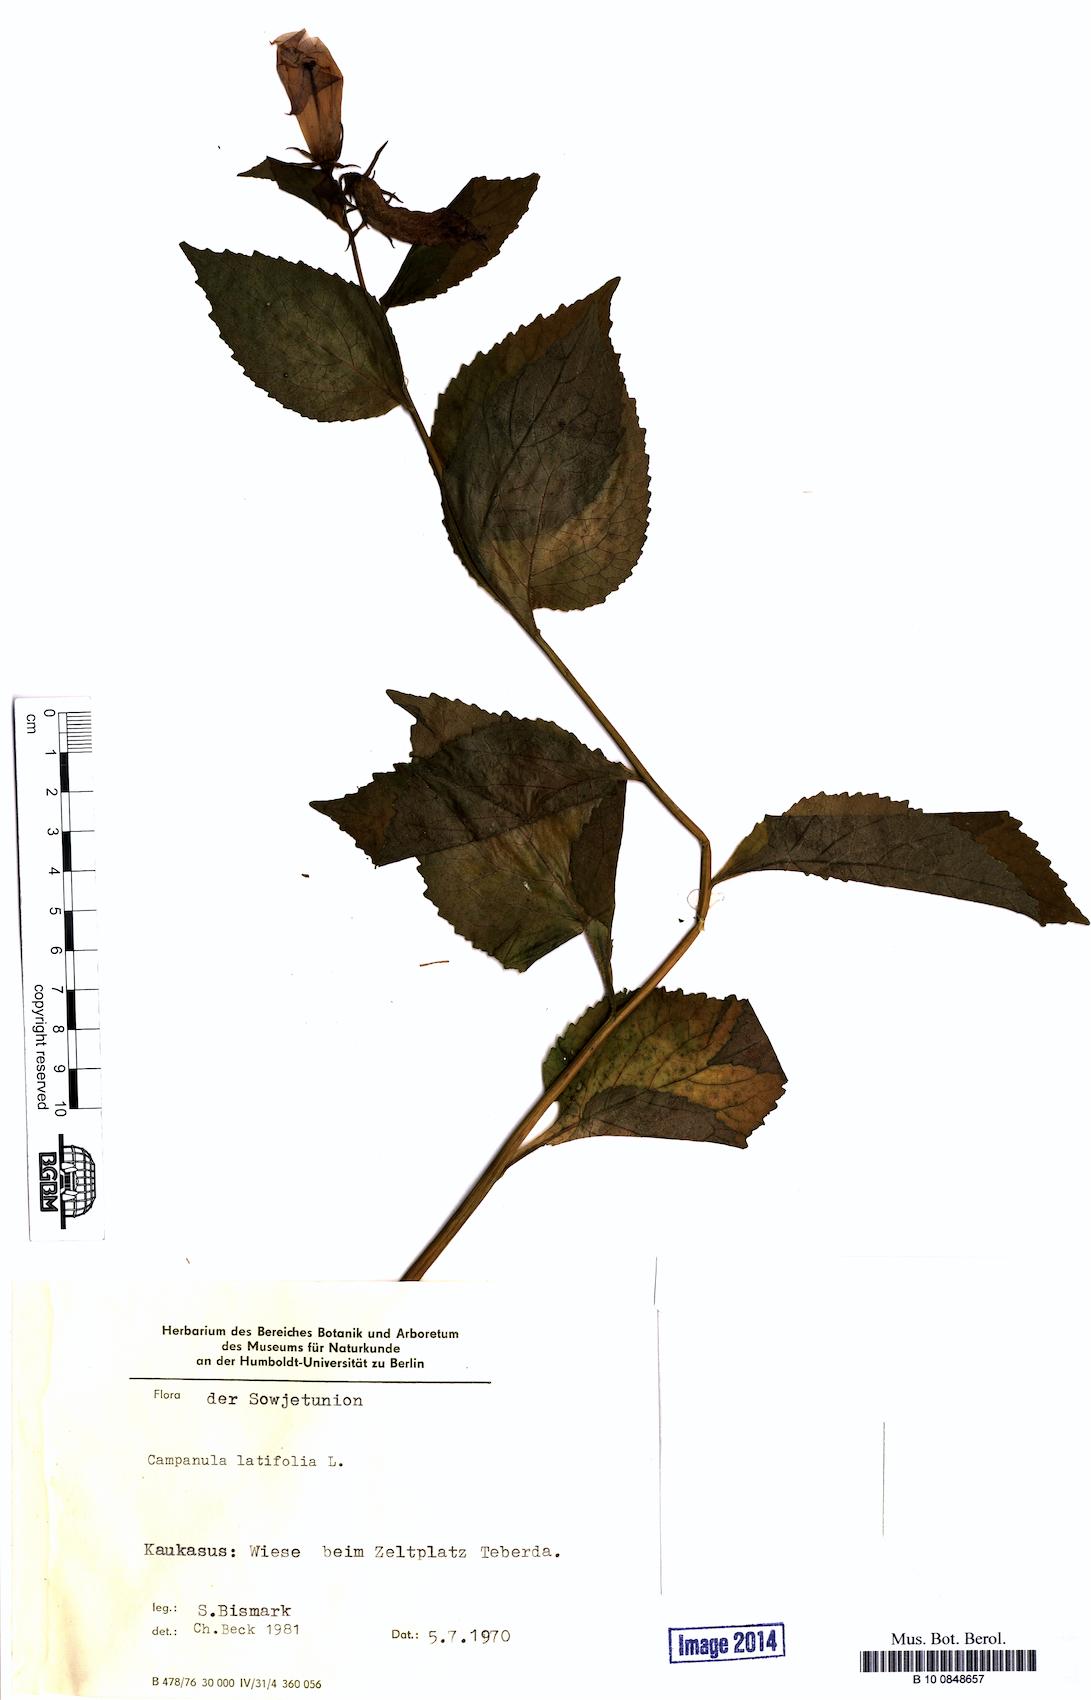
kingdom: Plantae
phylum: Tracheophyta
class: Magnoliopsida
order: Asterales
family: Campanulaceae
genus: Campanula
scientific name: Campanula latifolia
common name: Giant bellflower
